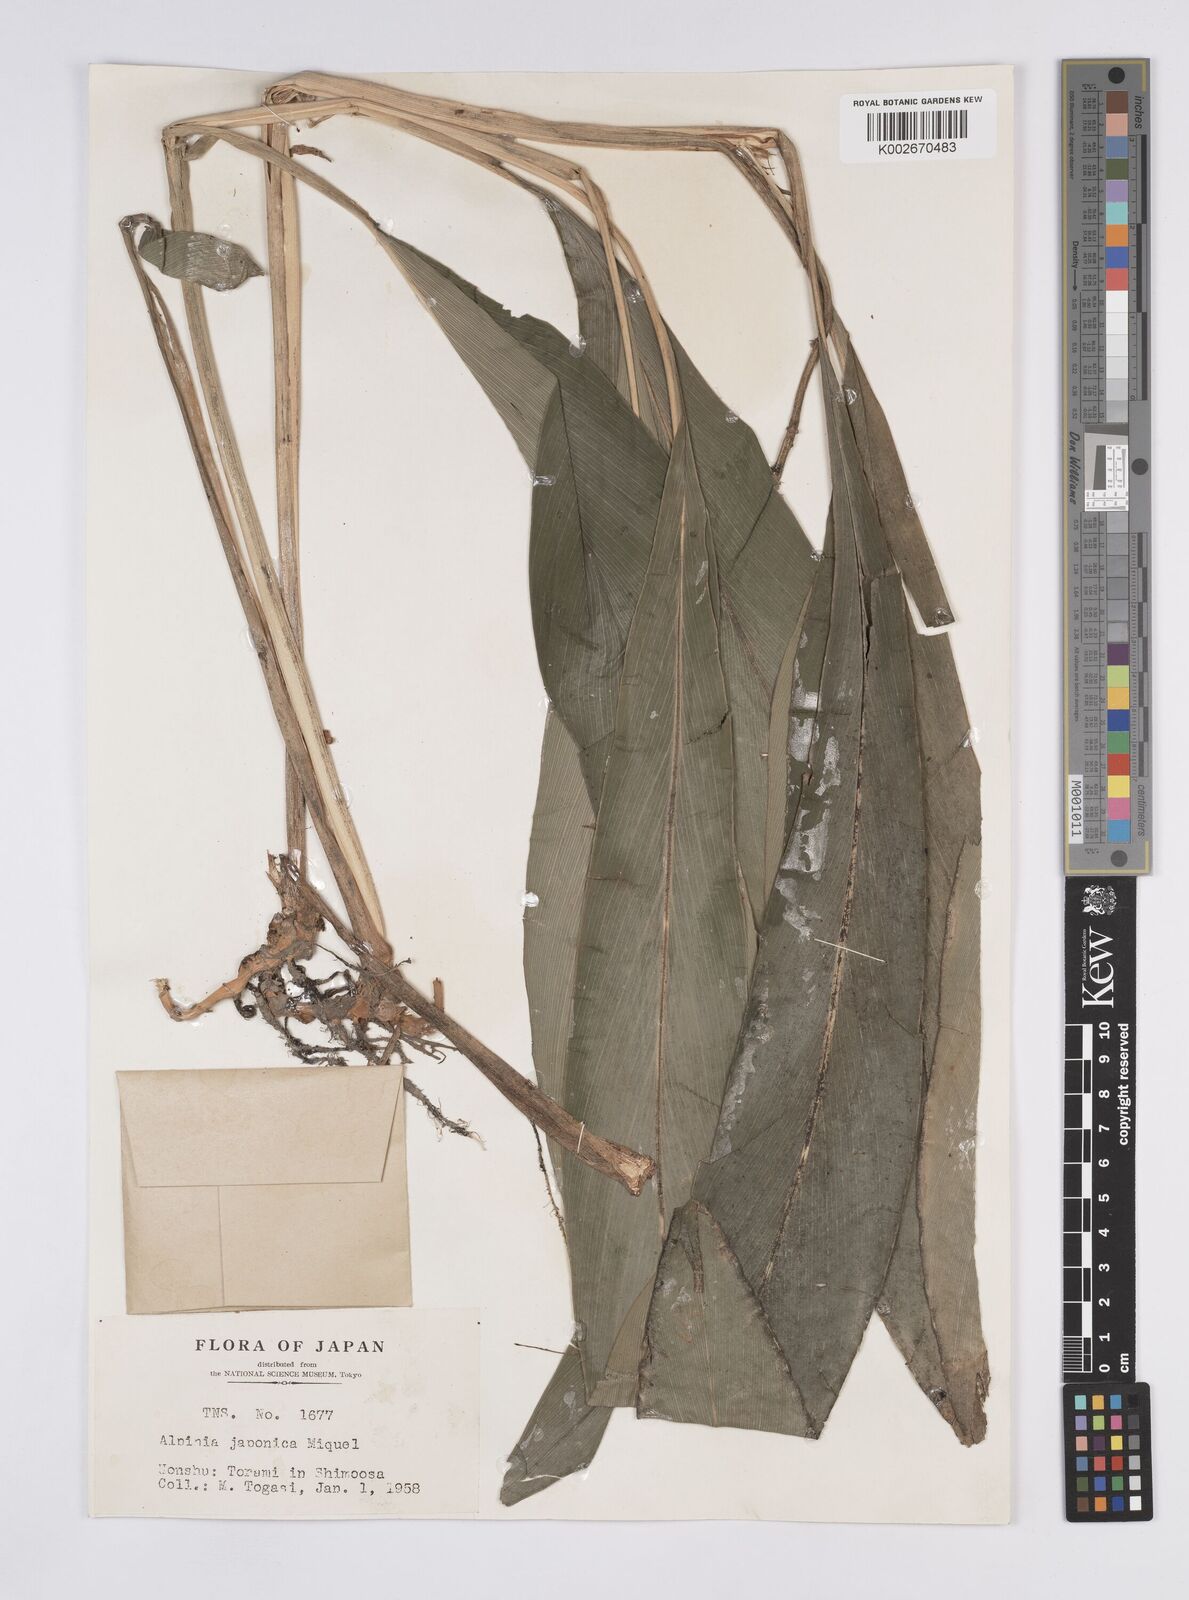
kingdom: Plantae
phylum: Tracheophyta
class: Liliopsida
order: Zingiberales
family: Zingiberaceae
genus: Alpinia
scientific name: Alpinia japonica
